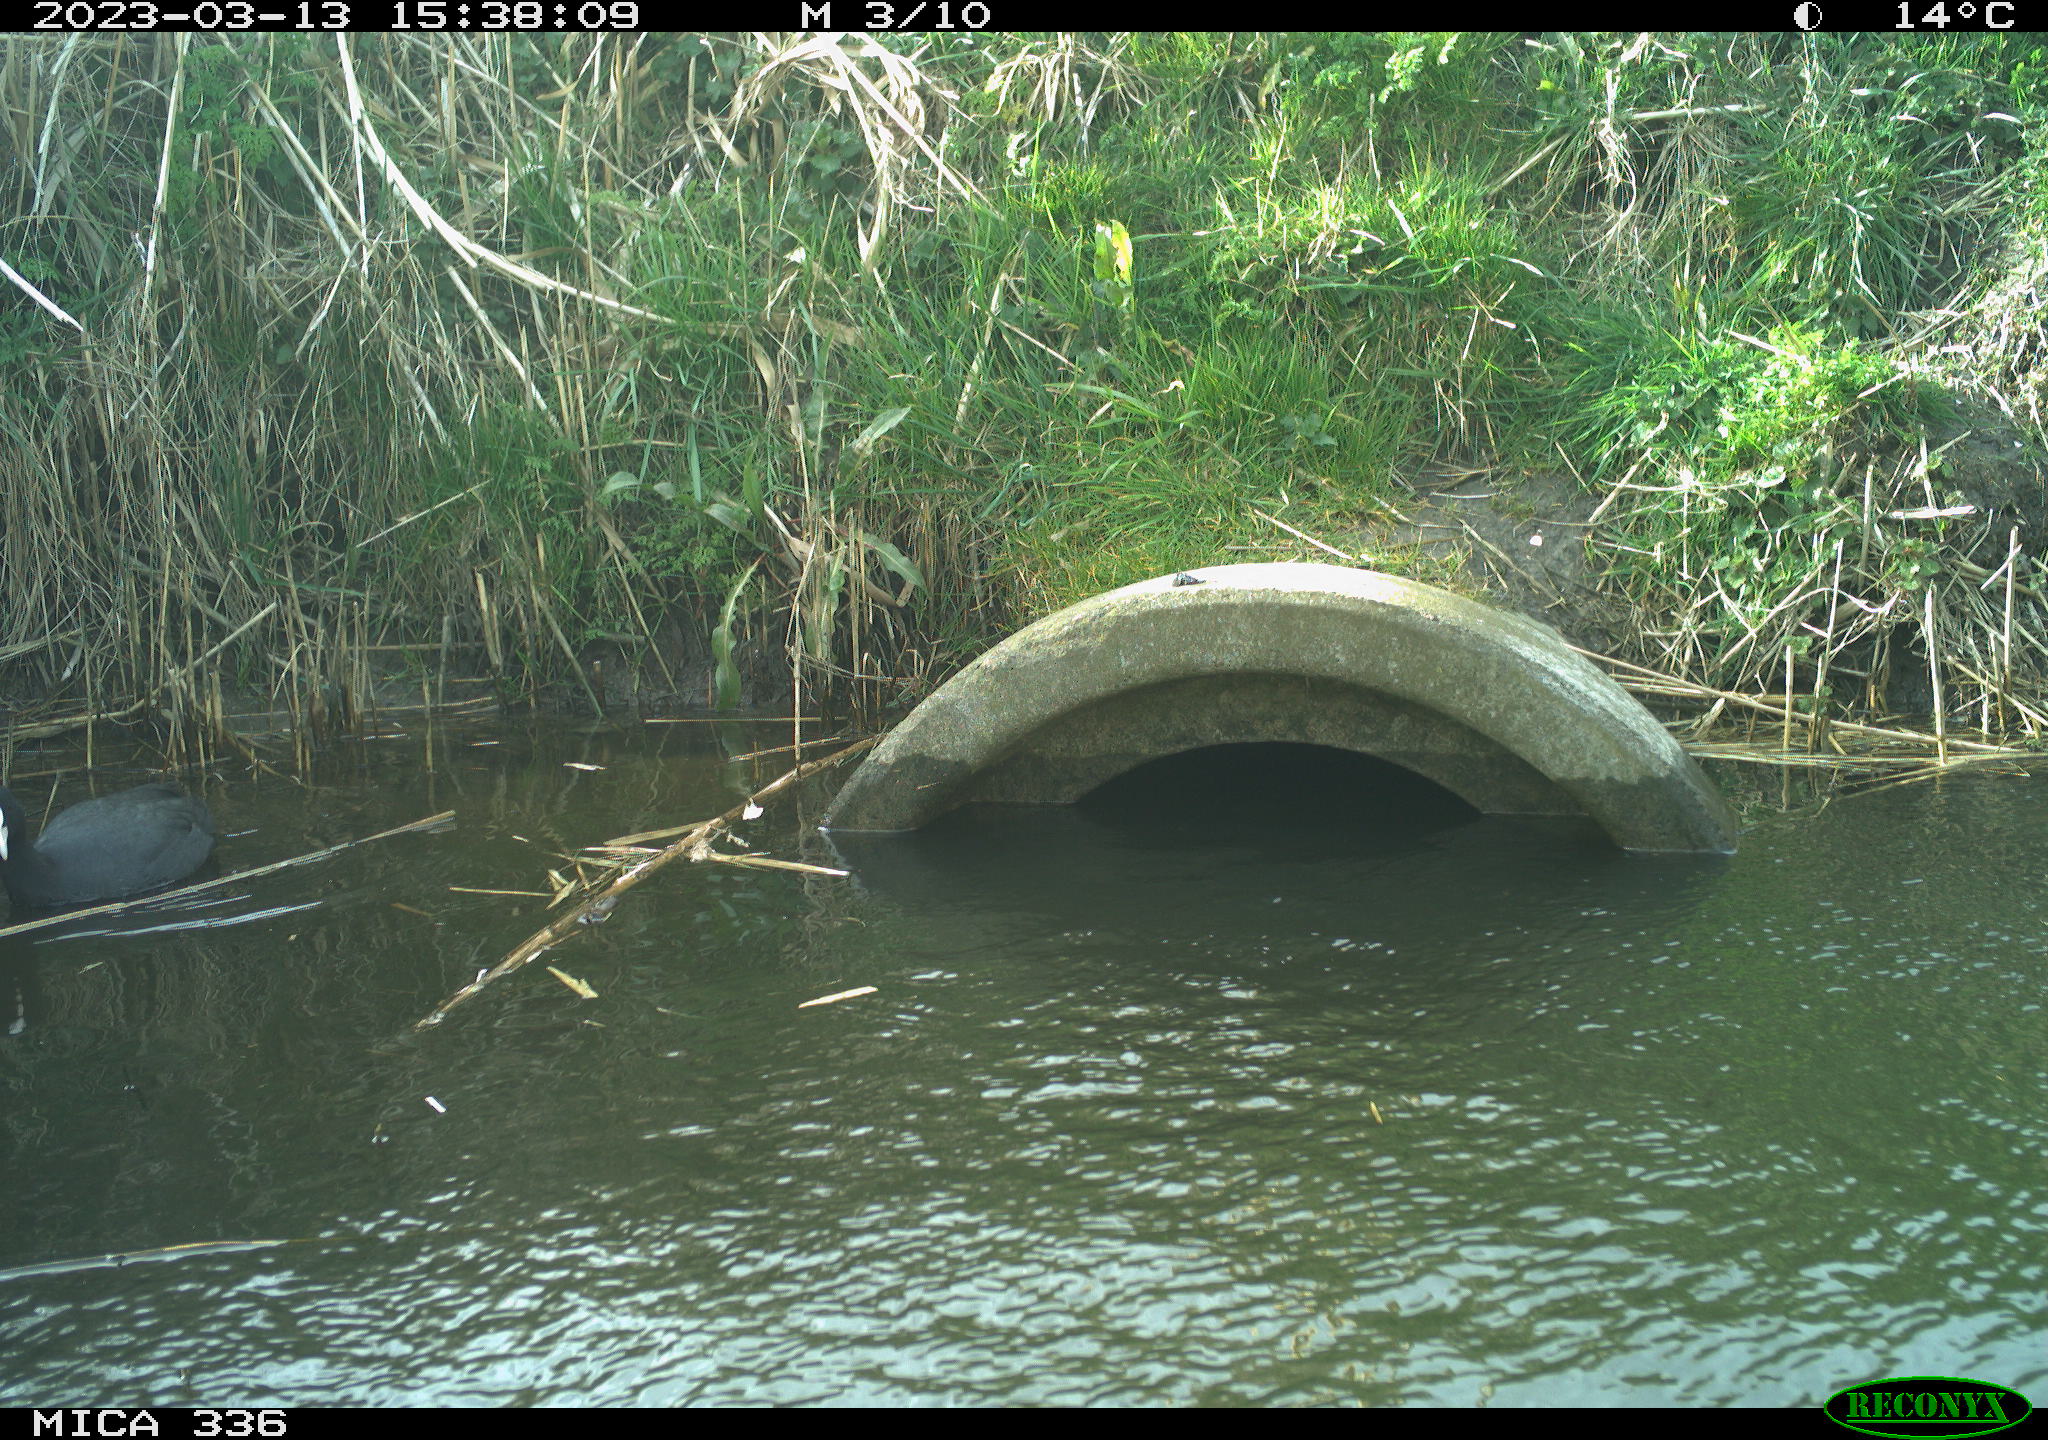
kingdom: Animalia
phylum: Chordata
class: Aves
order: Gruiformes
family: Rallidae
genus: Fulica
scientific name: Fulica atra
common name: Eurasian coot
